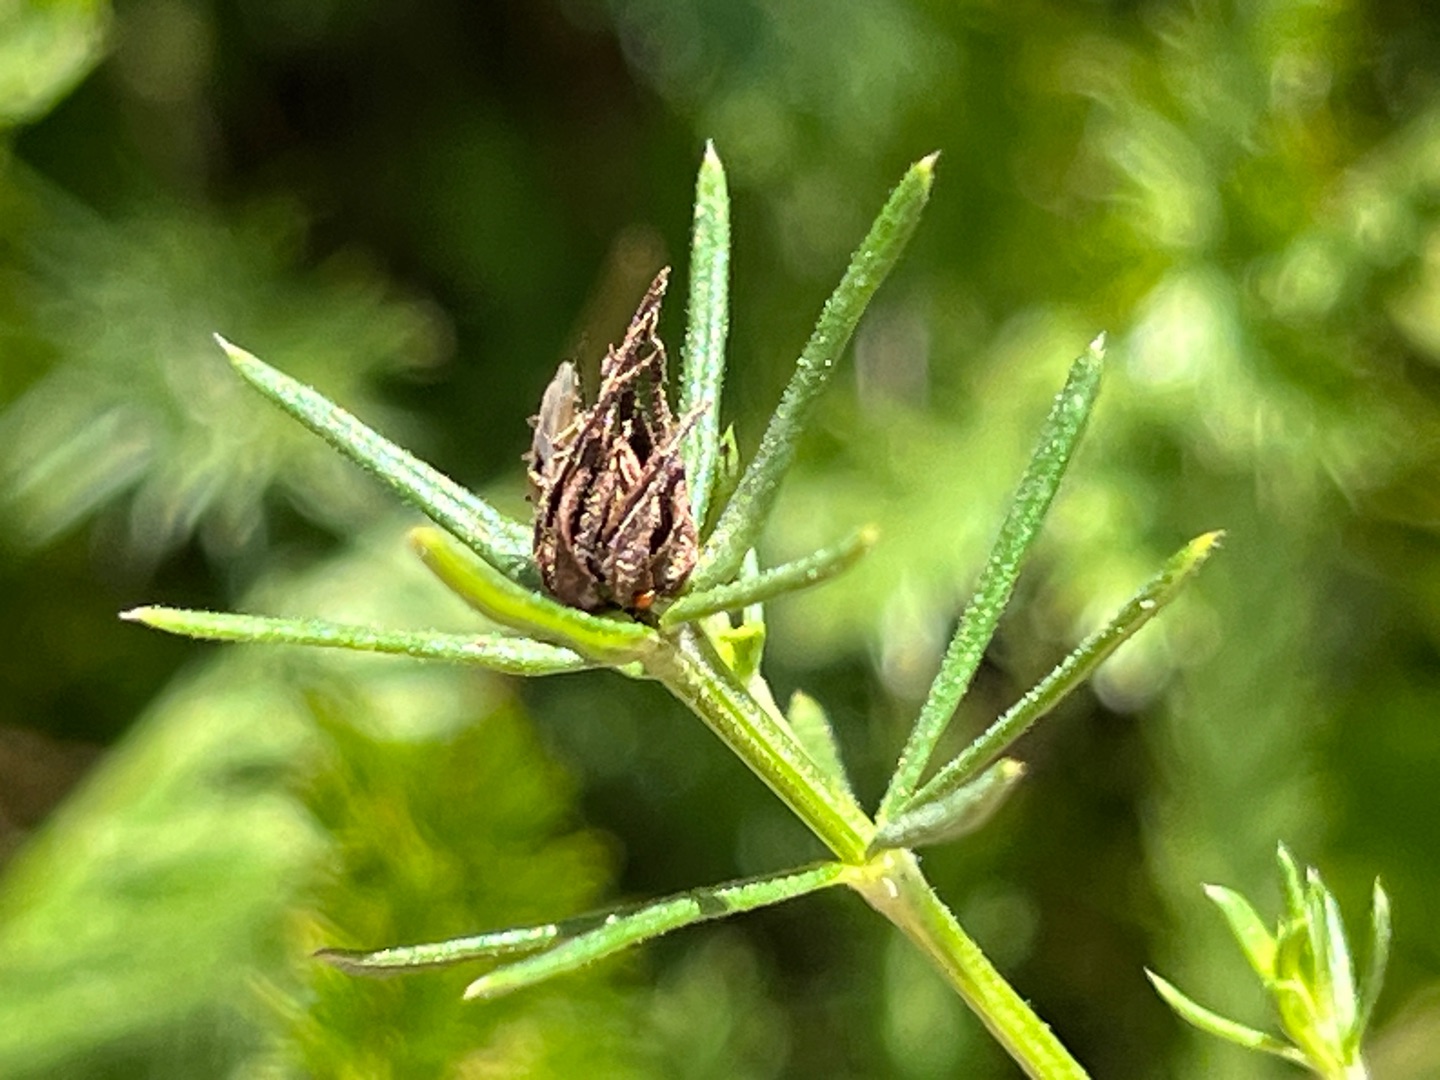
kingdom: Animalia
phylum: Arthropoda
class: Insecta
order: Diptera
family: Cecidomyiidae
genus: Contarinia
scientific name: Contarinia vera
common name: Snurretopgalmyg
